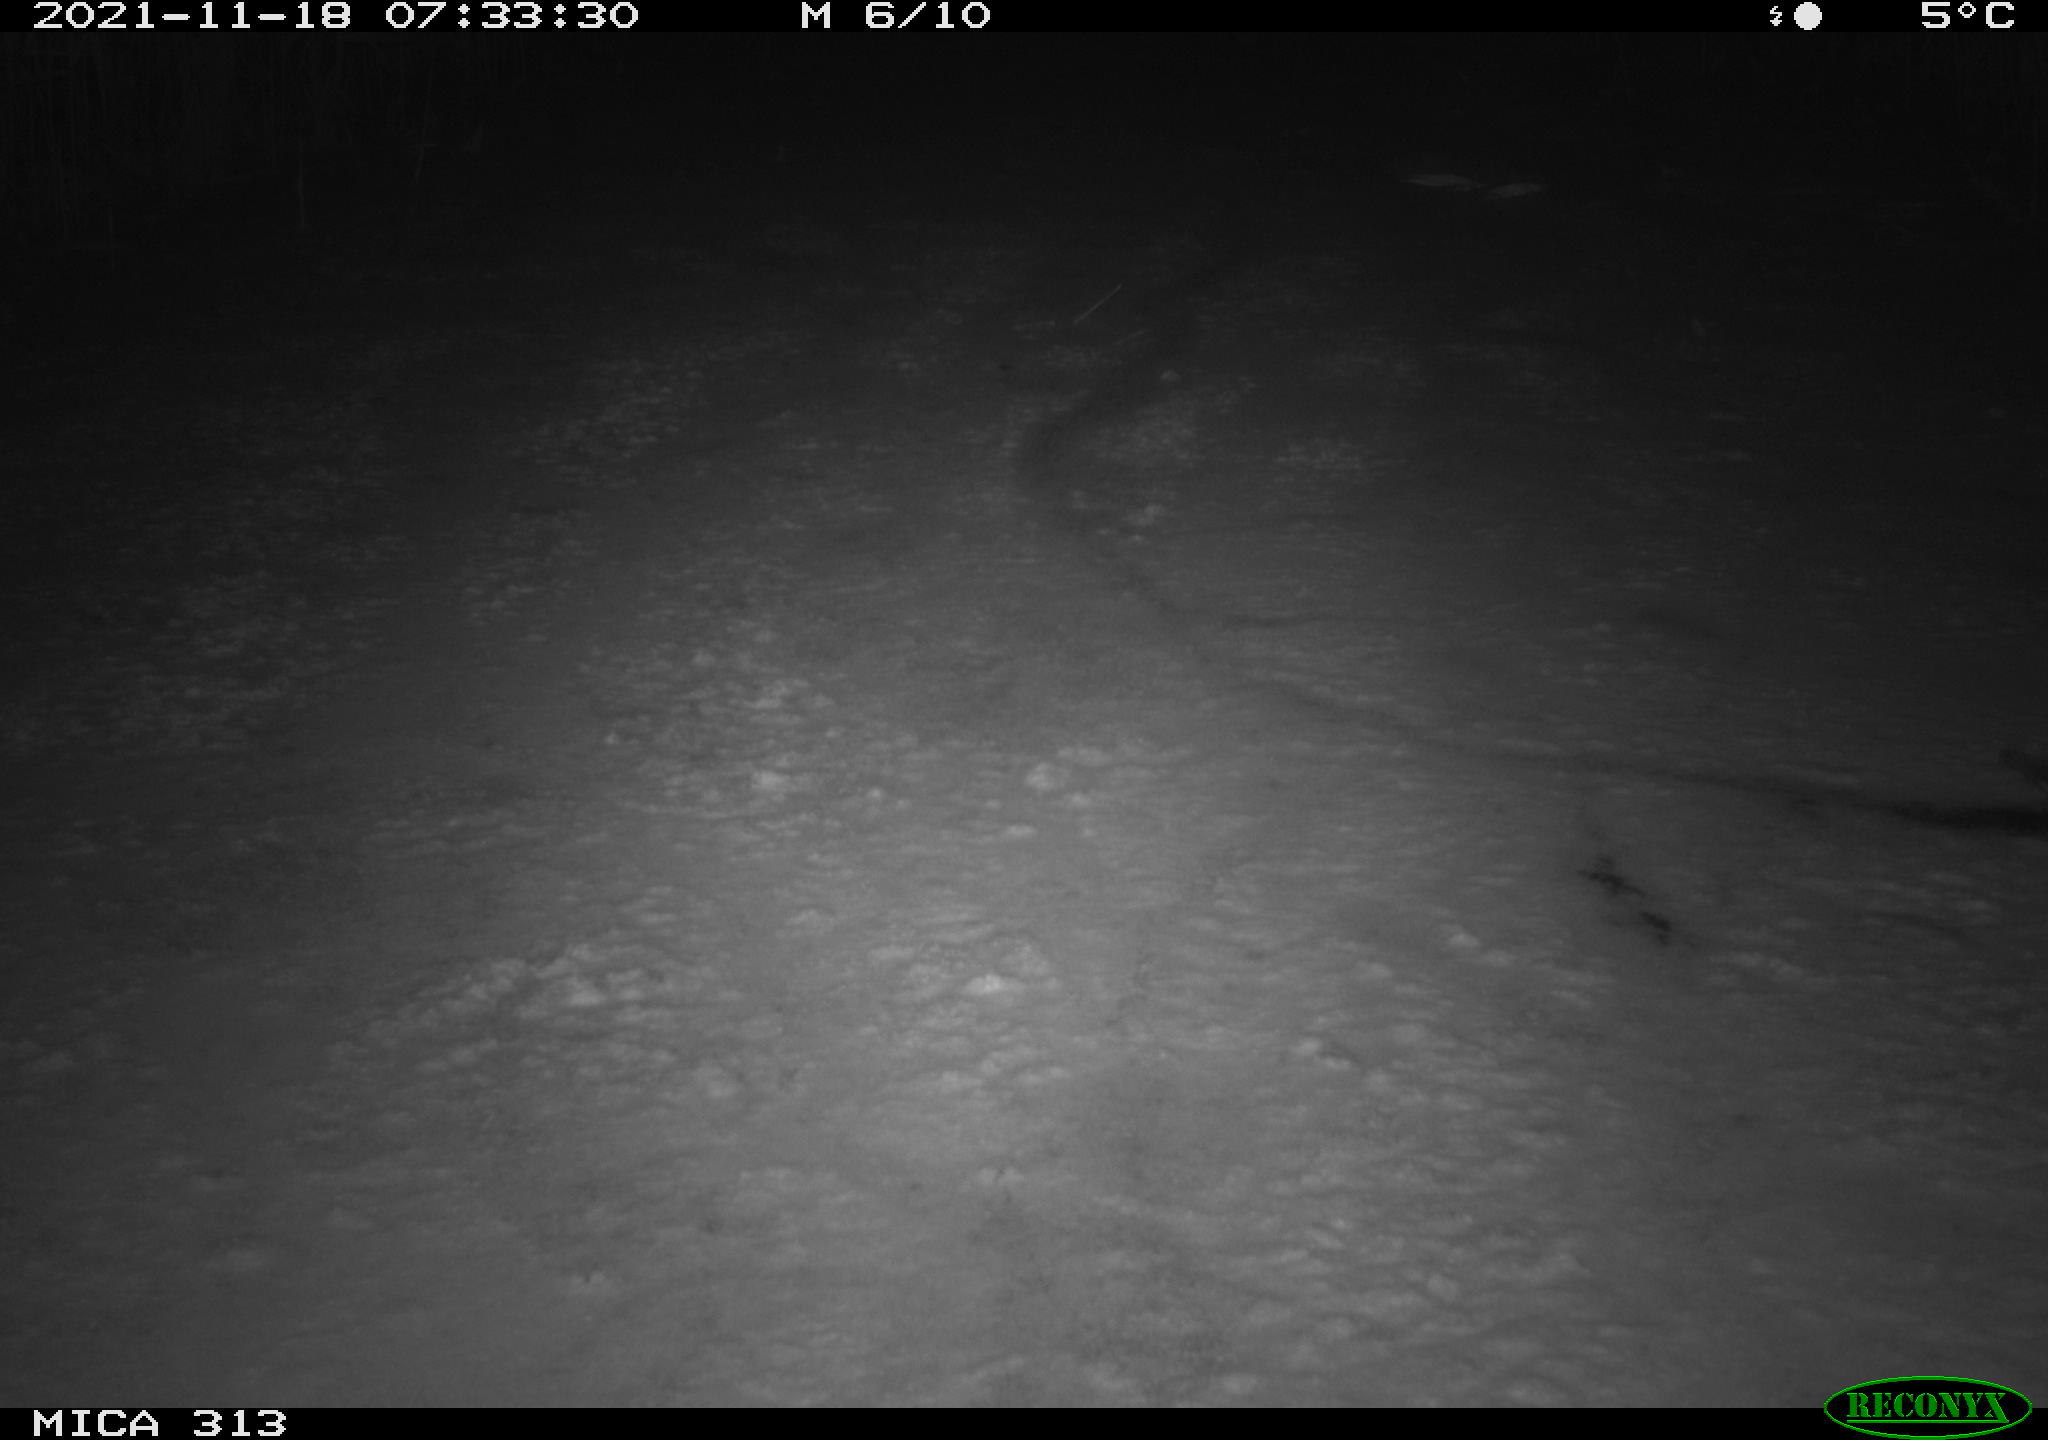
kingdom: Animalia
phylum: Chordata
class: Aves
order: Gruiformes
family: Rallidae
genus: Gallinula
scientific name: Gallinula chloropus
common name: Common moorhen
